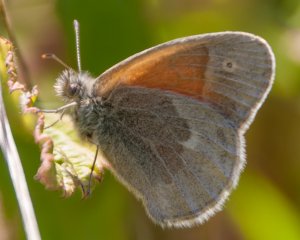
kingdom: Animalia
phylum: Arthropoda
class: Insecta
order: Lepidoptera
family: Nymphalidae
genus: Coenonympha
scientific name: Coenonympha tullia
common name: Large Heath
